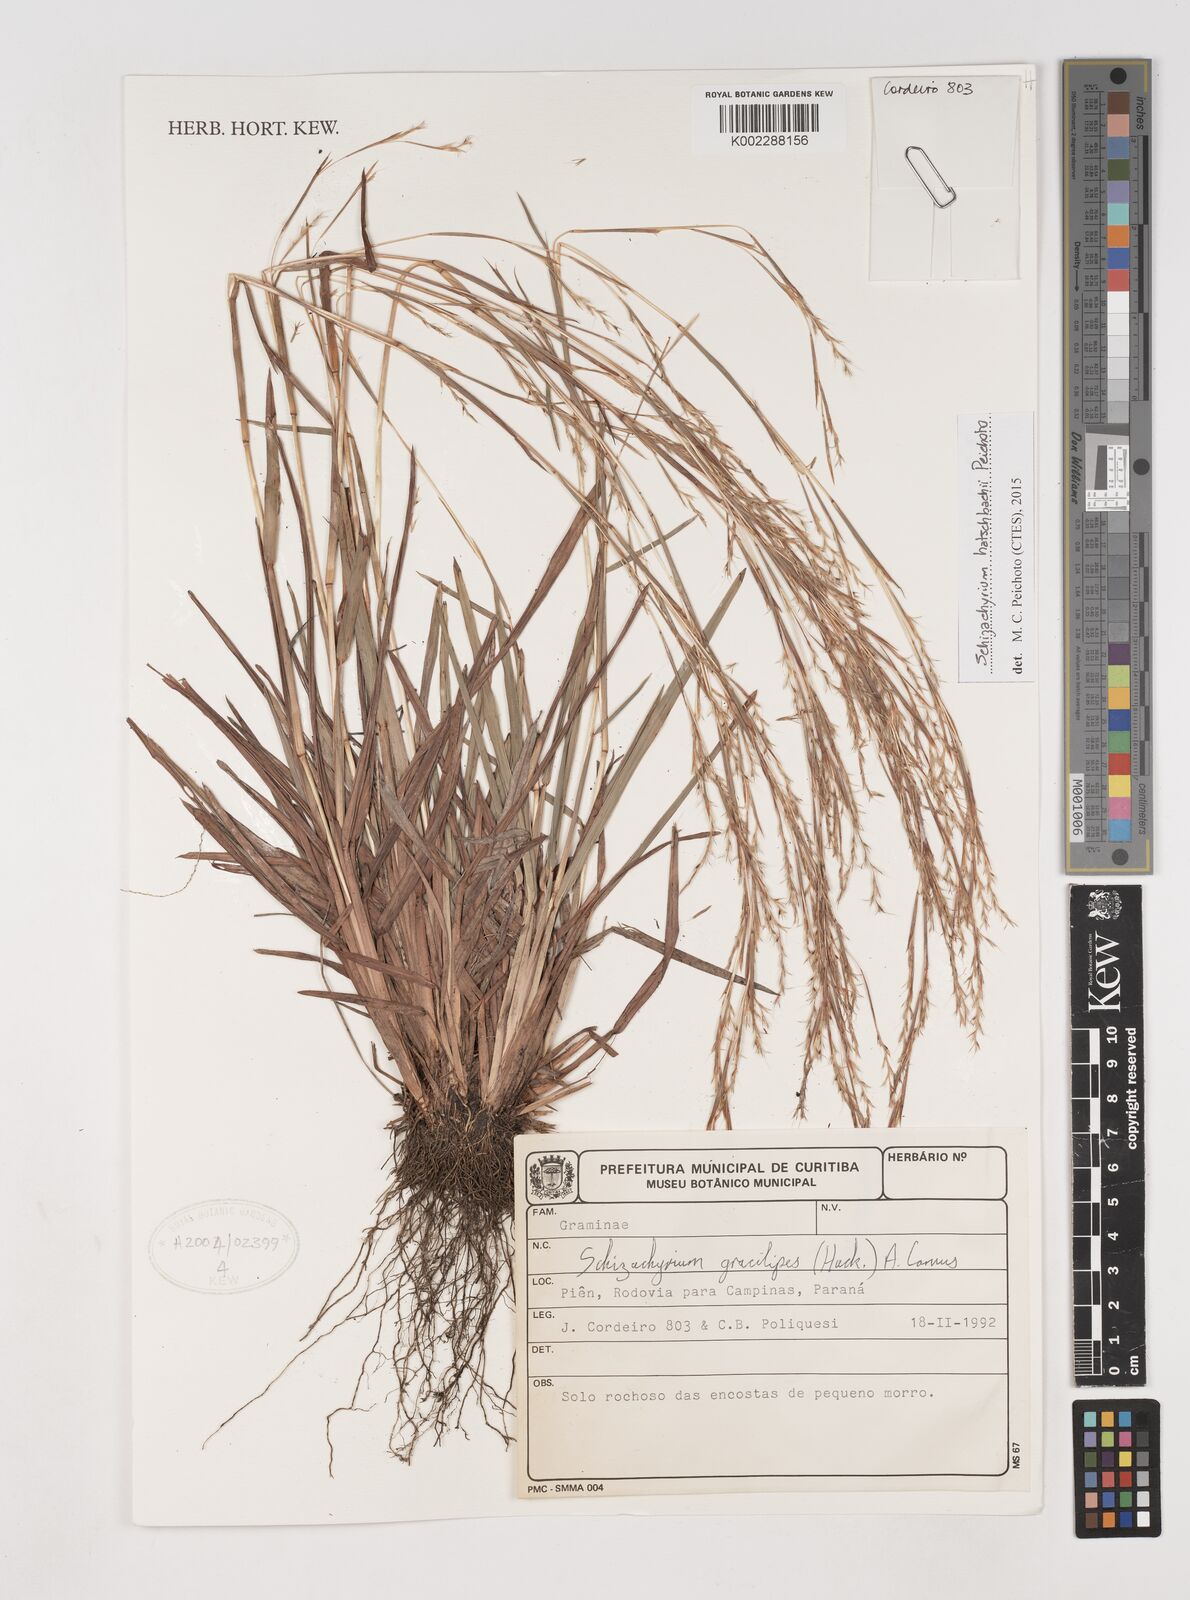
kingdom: Plantae
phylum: Tracheophyta
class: Liliopsida
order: Poales
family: Poaceae
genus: Schizachyrium
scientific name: Schizachyrium hatschbachii
